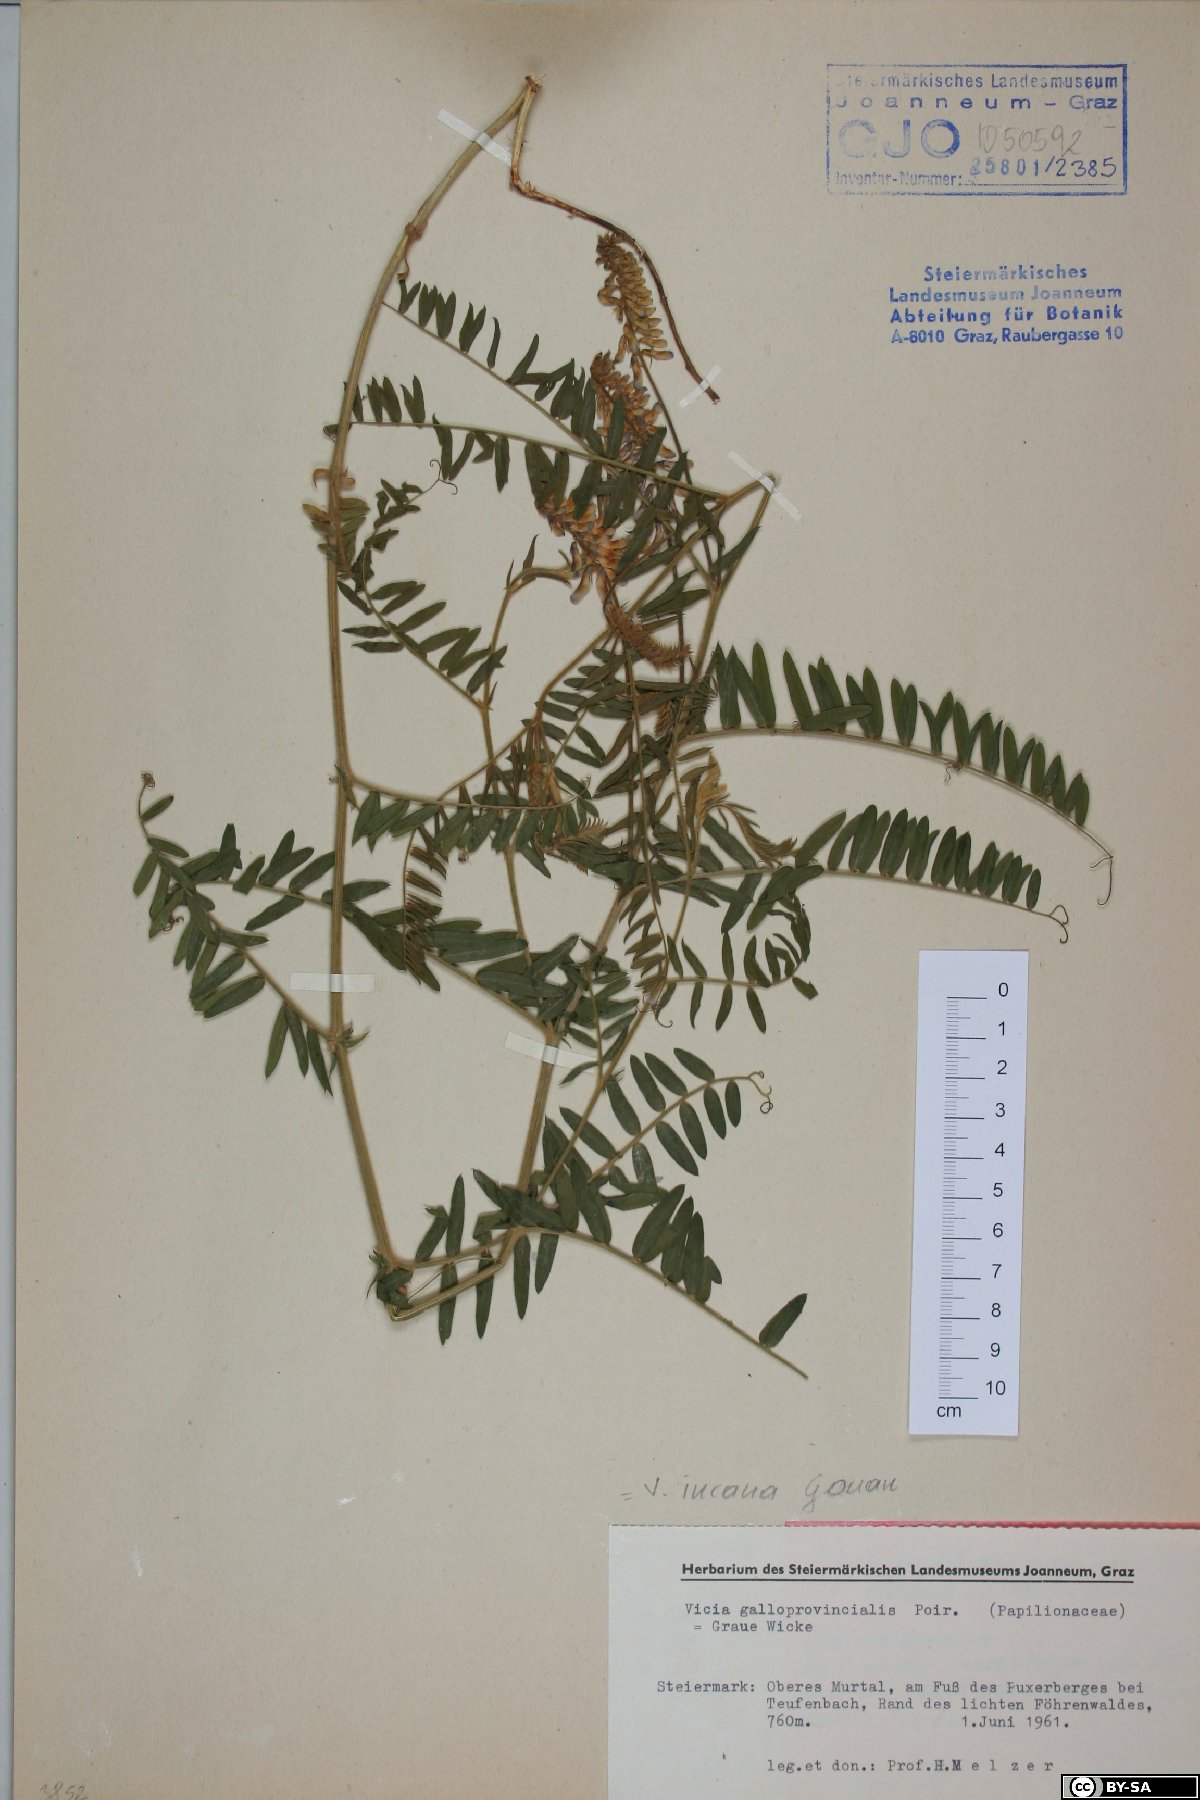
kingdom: Plantae
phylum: Tracheophyta
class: Magnoliopsida
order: Fabales
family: Fabaceae
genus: Vicia
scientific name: Vicia incana
